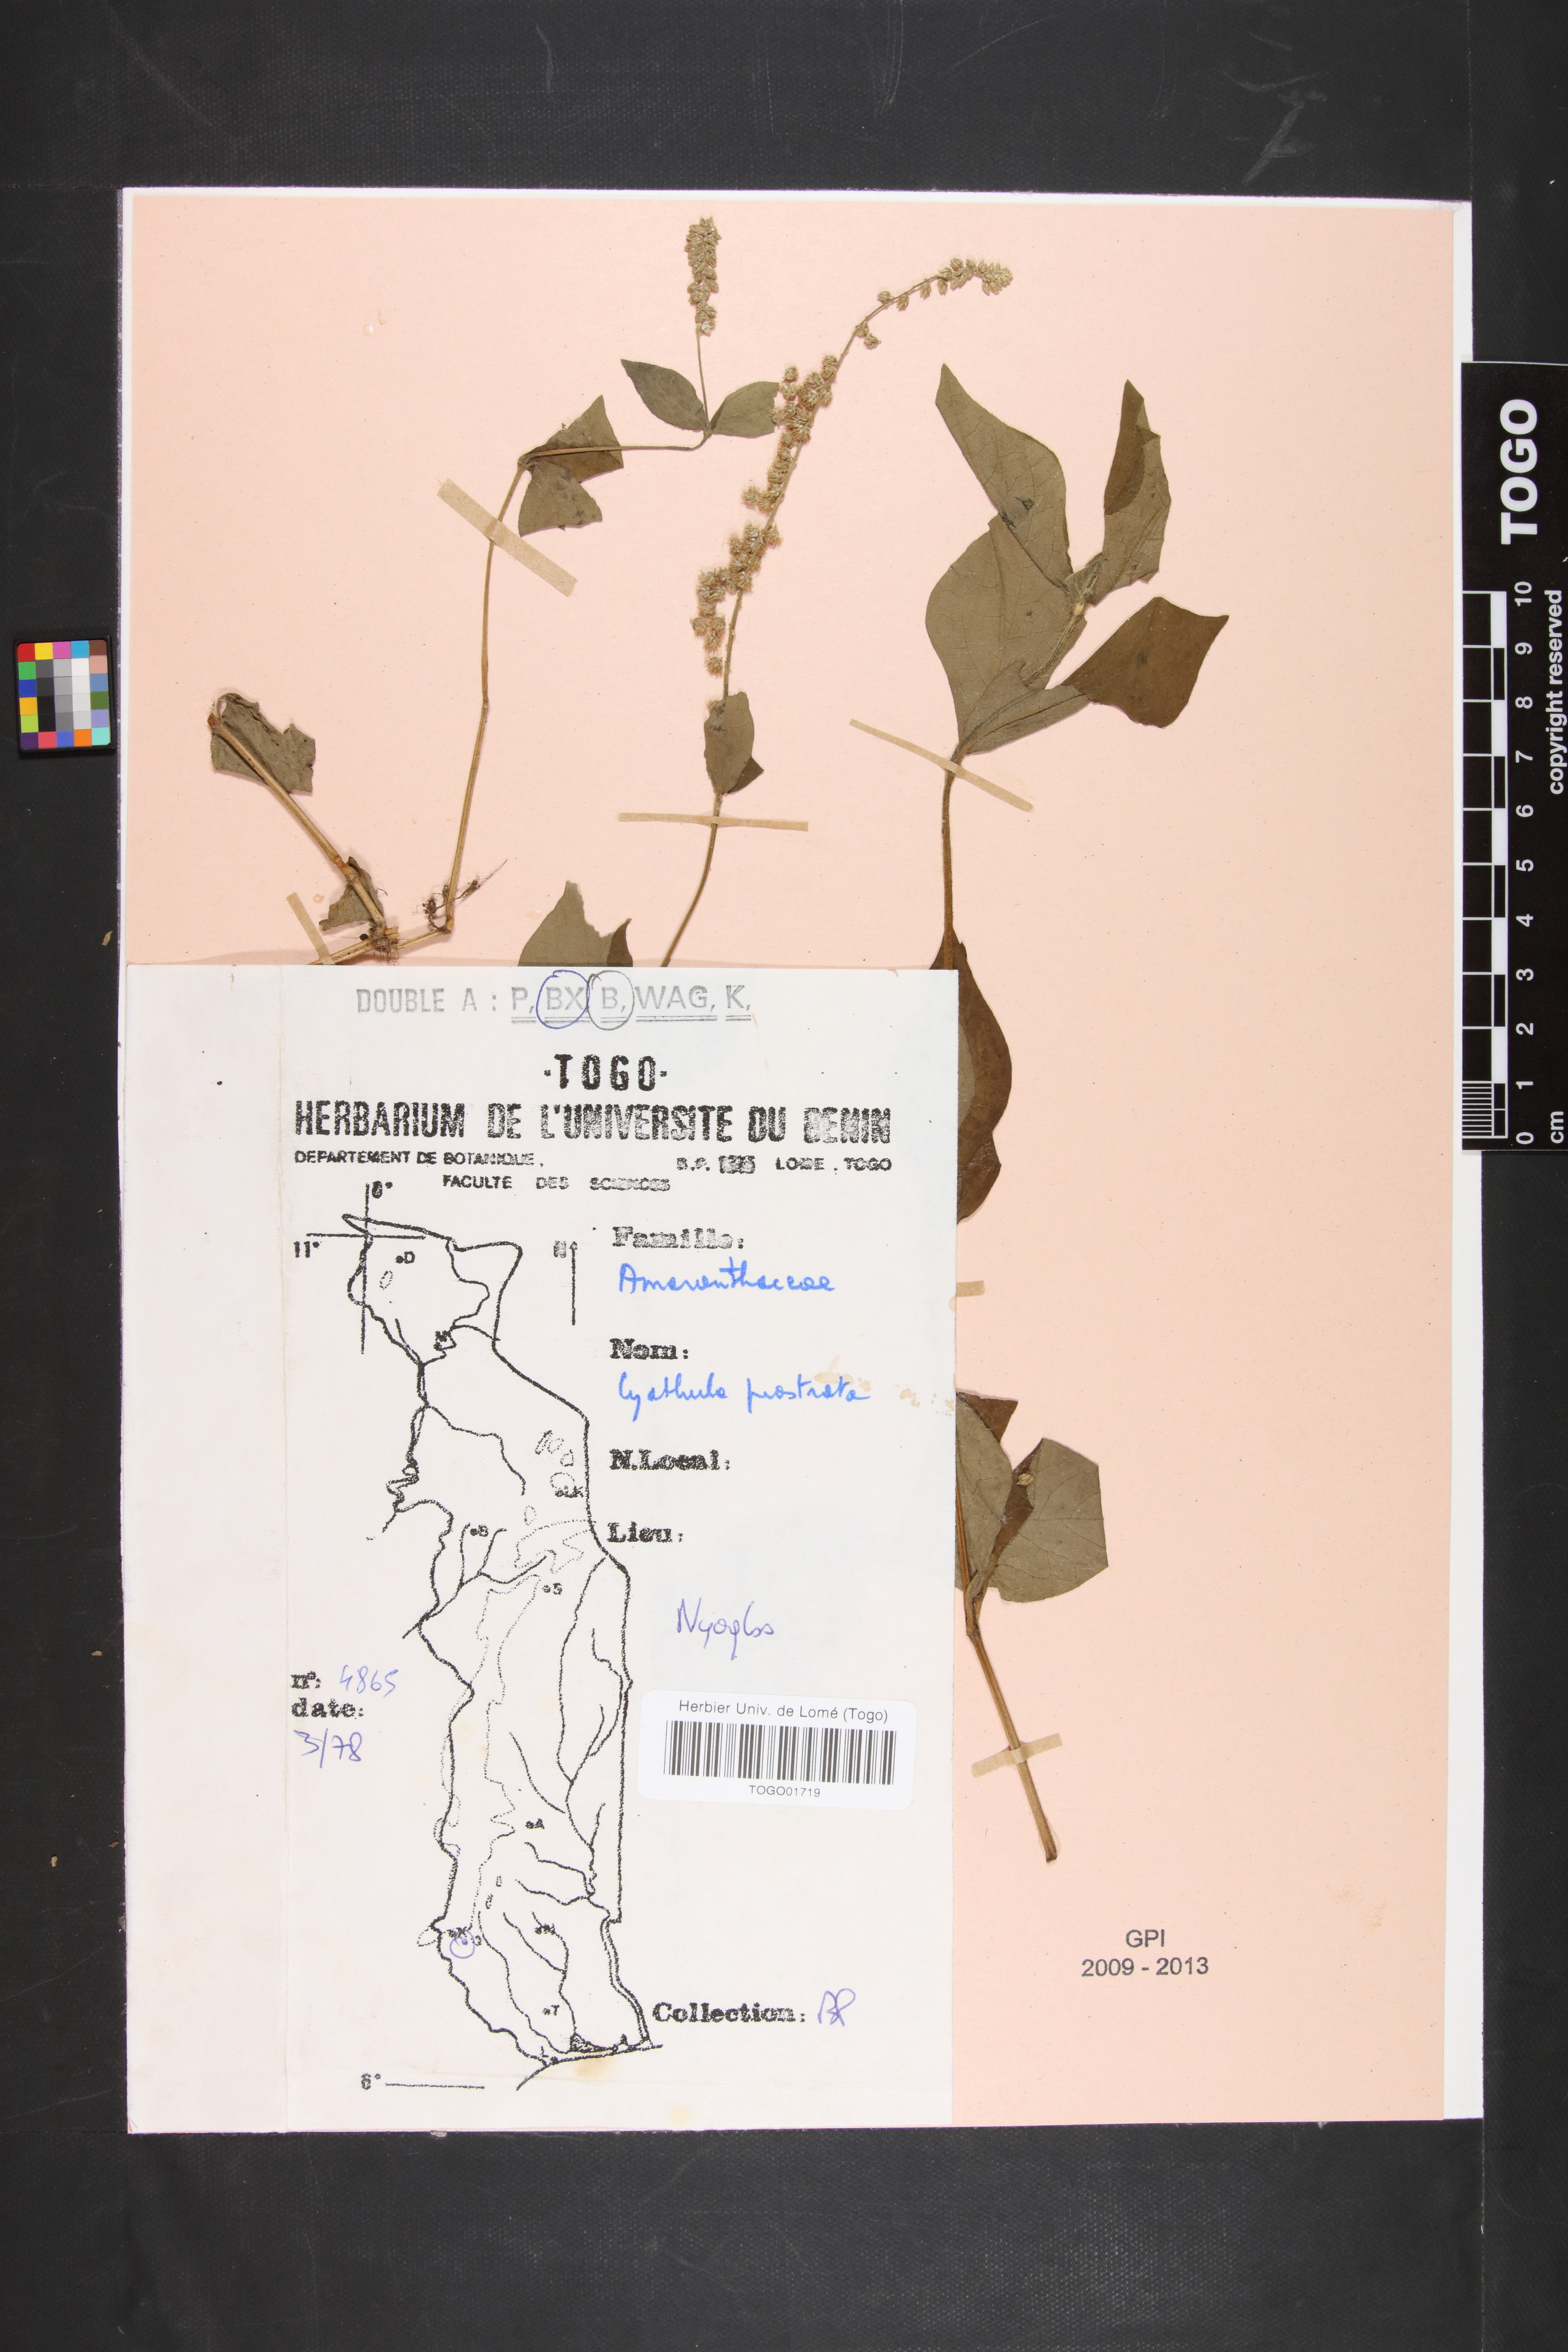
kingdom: Plantae
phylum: Tracheophyta
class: Magnoliopsida
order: Caryophyllales
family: Amaranthaceae
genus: Cyathula
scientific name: Cyathula prostrata
